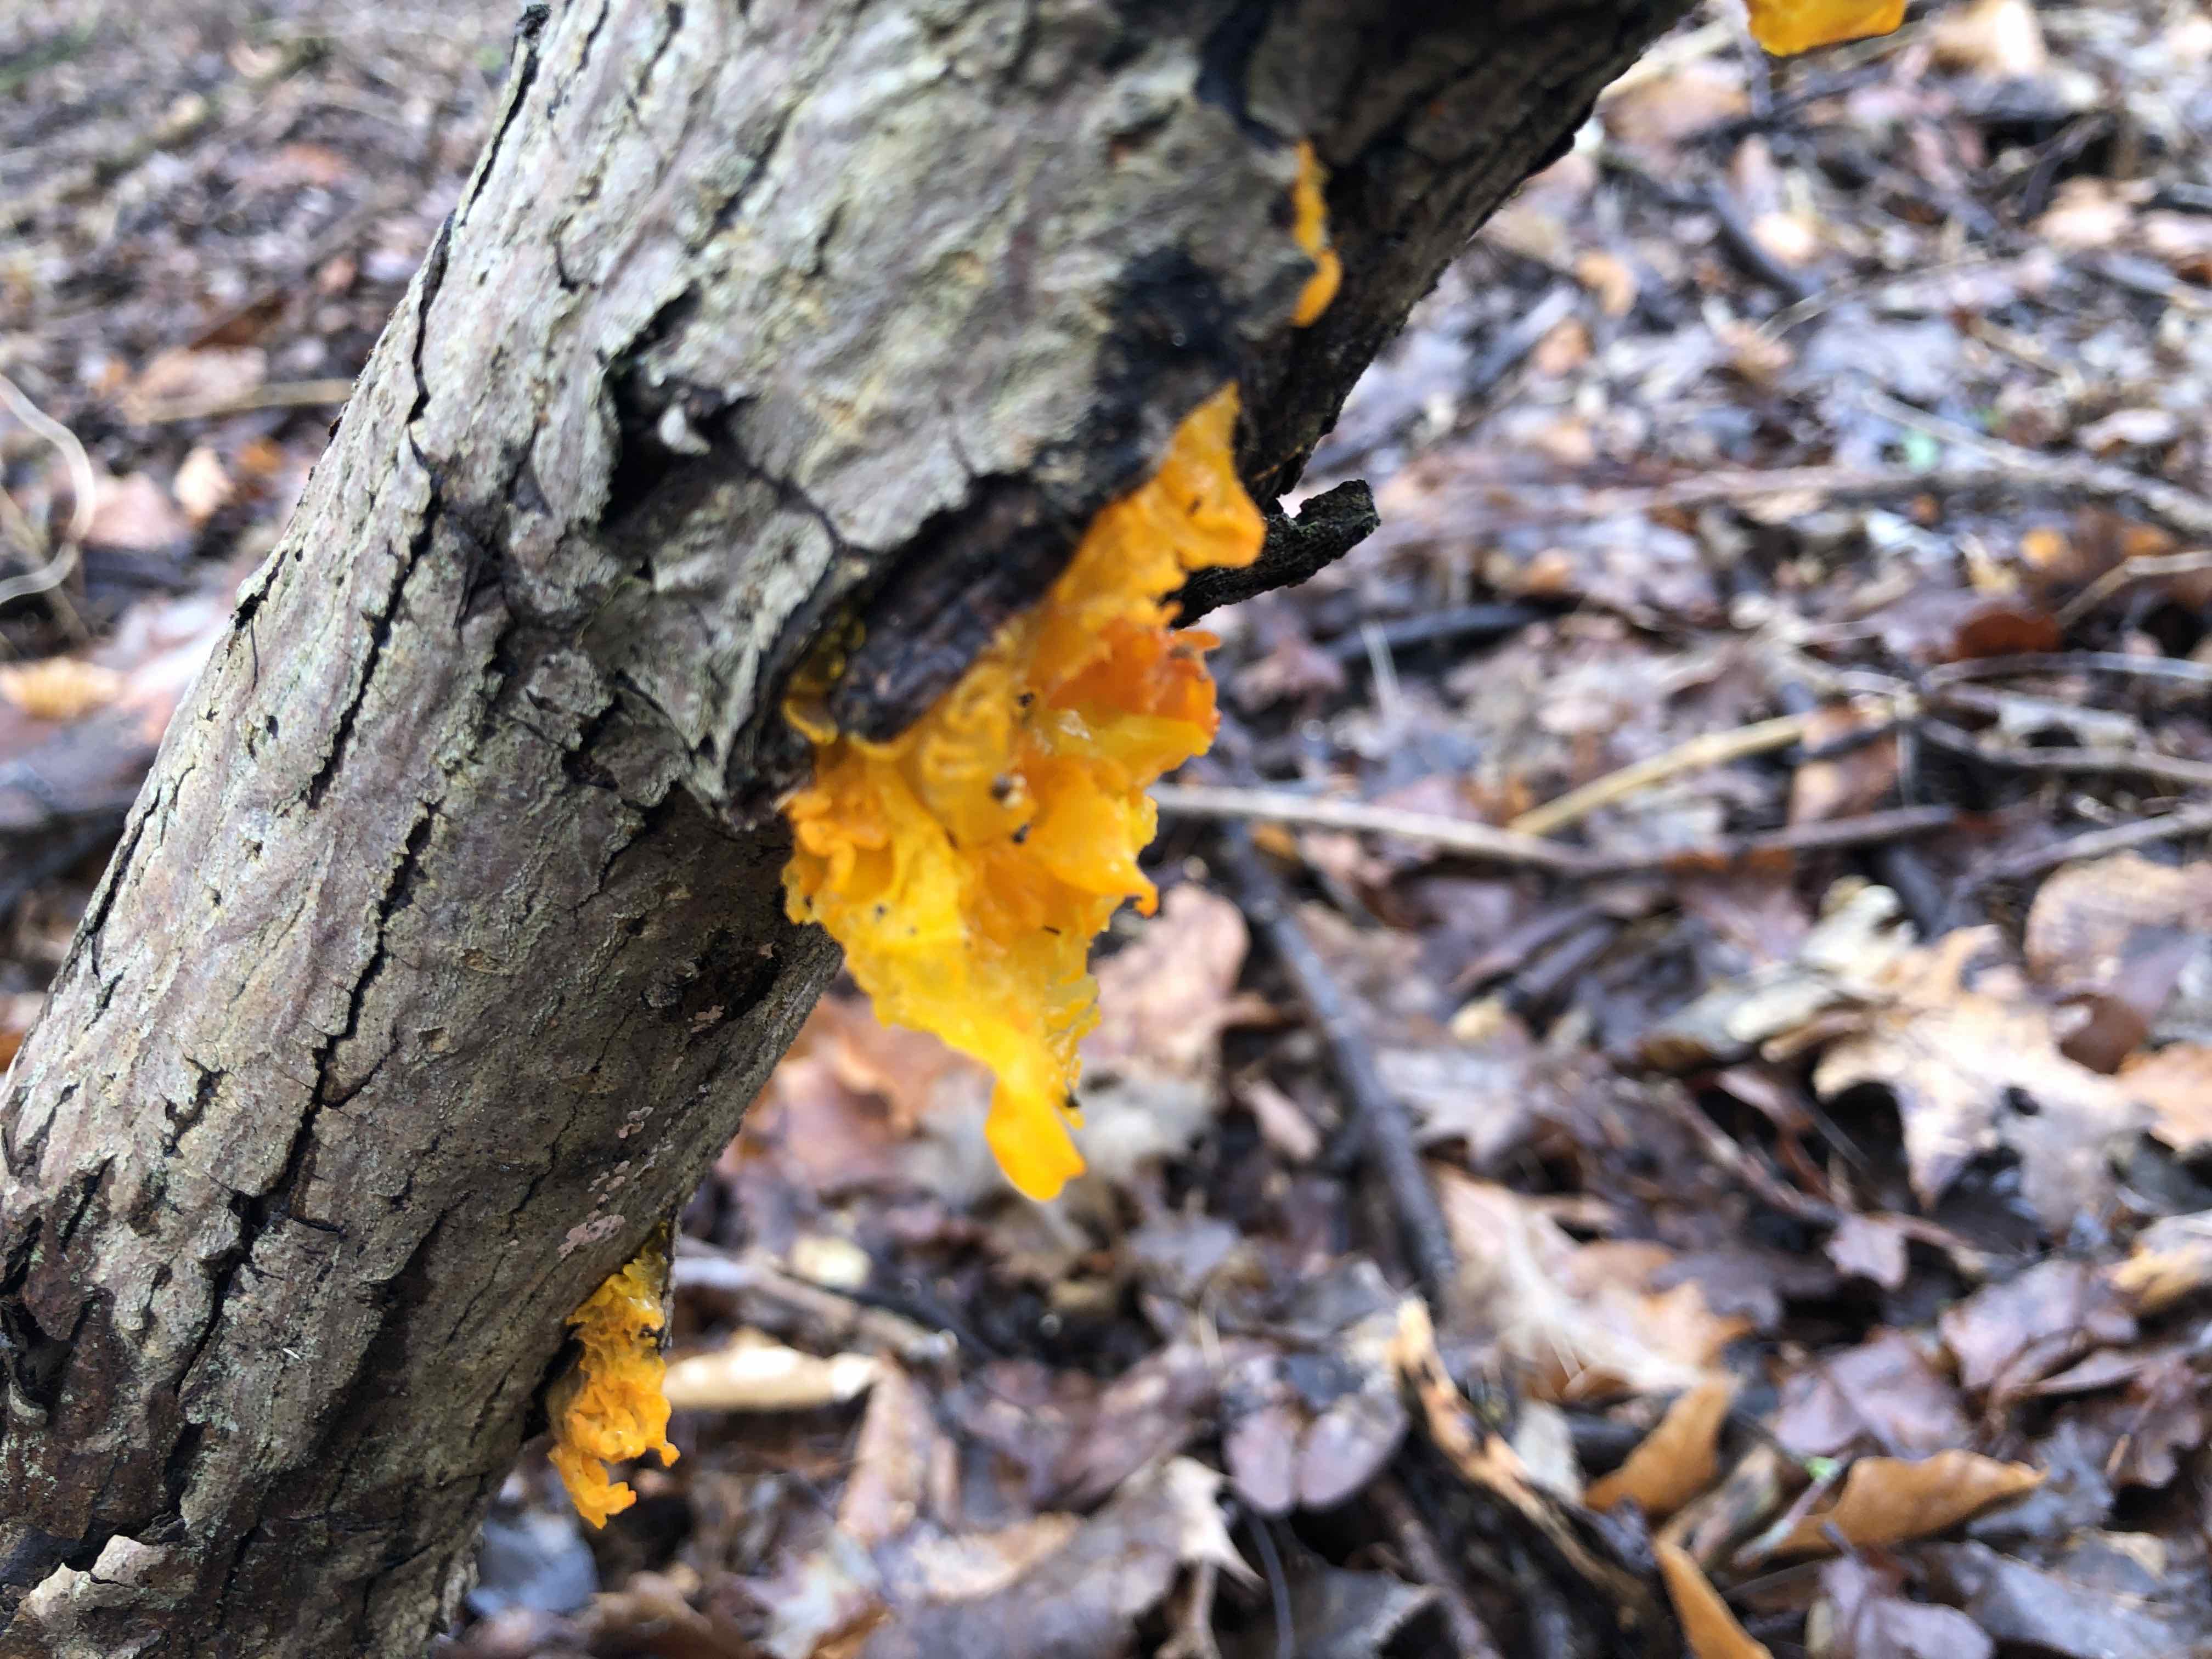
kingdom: Fungi
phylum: Basidiomycota
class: Tremellomycetes
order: Tremellales
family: Tremellaceae
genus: Tremella
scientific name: Tremella mesenterica
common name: gul bævresvamp
